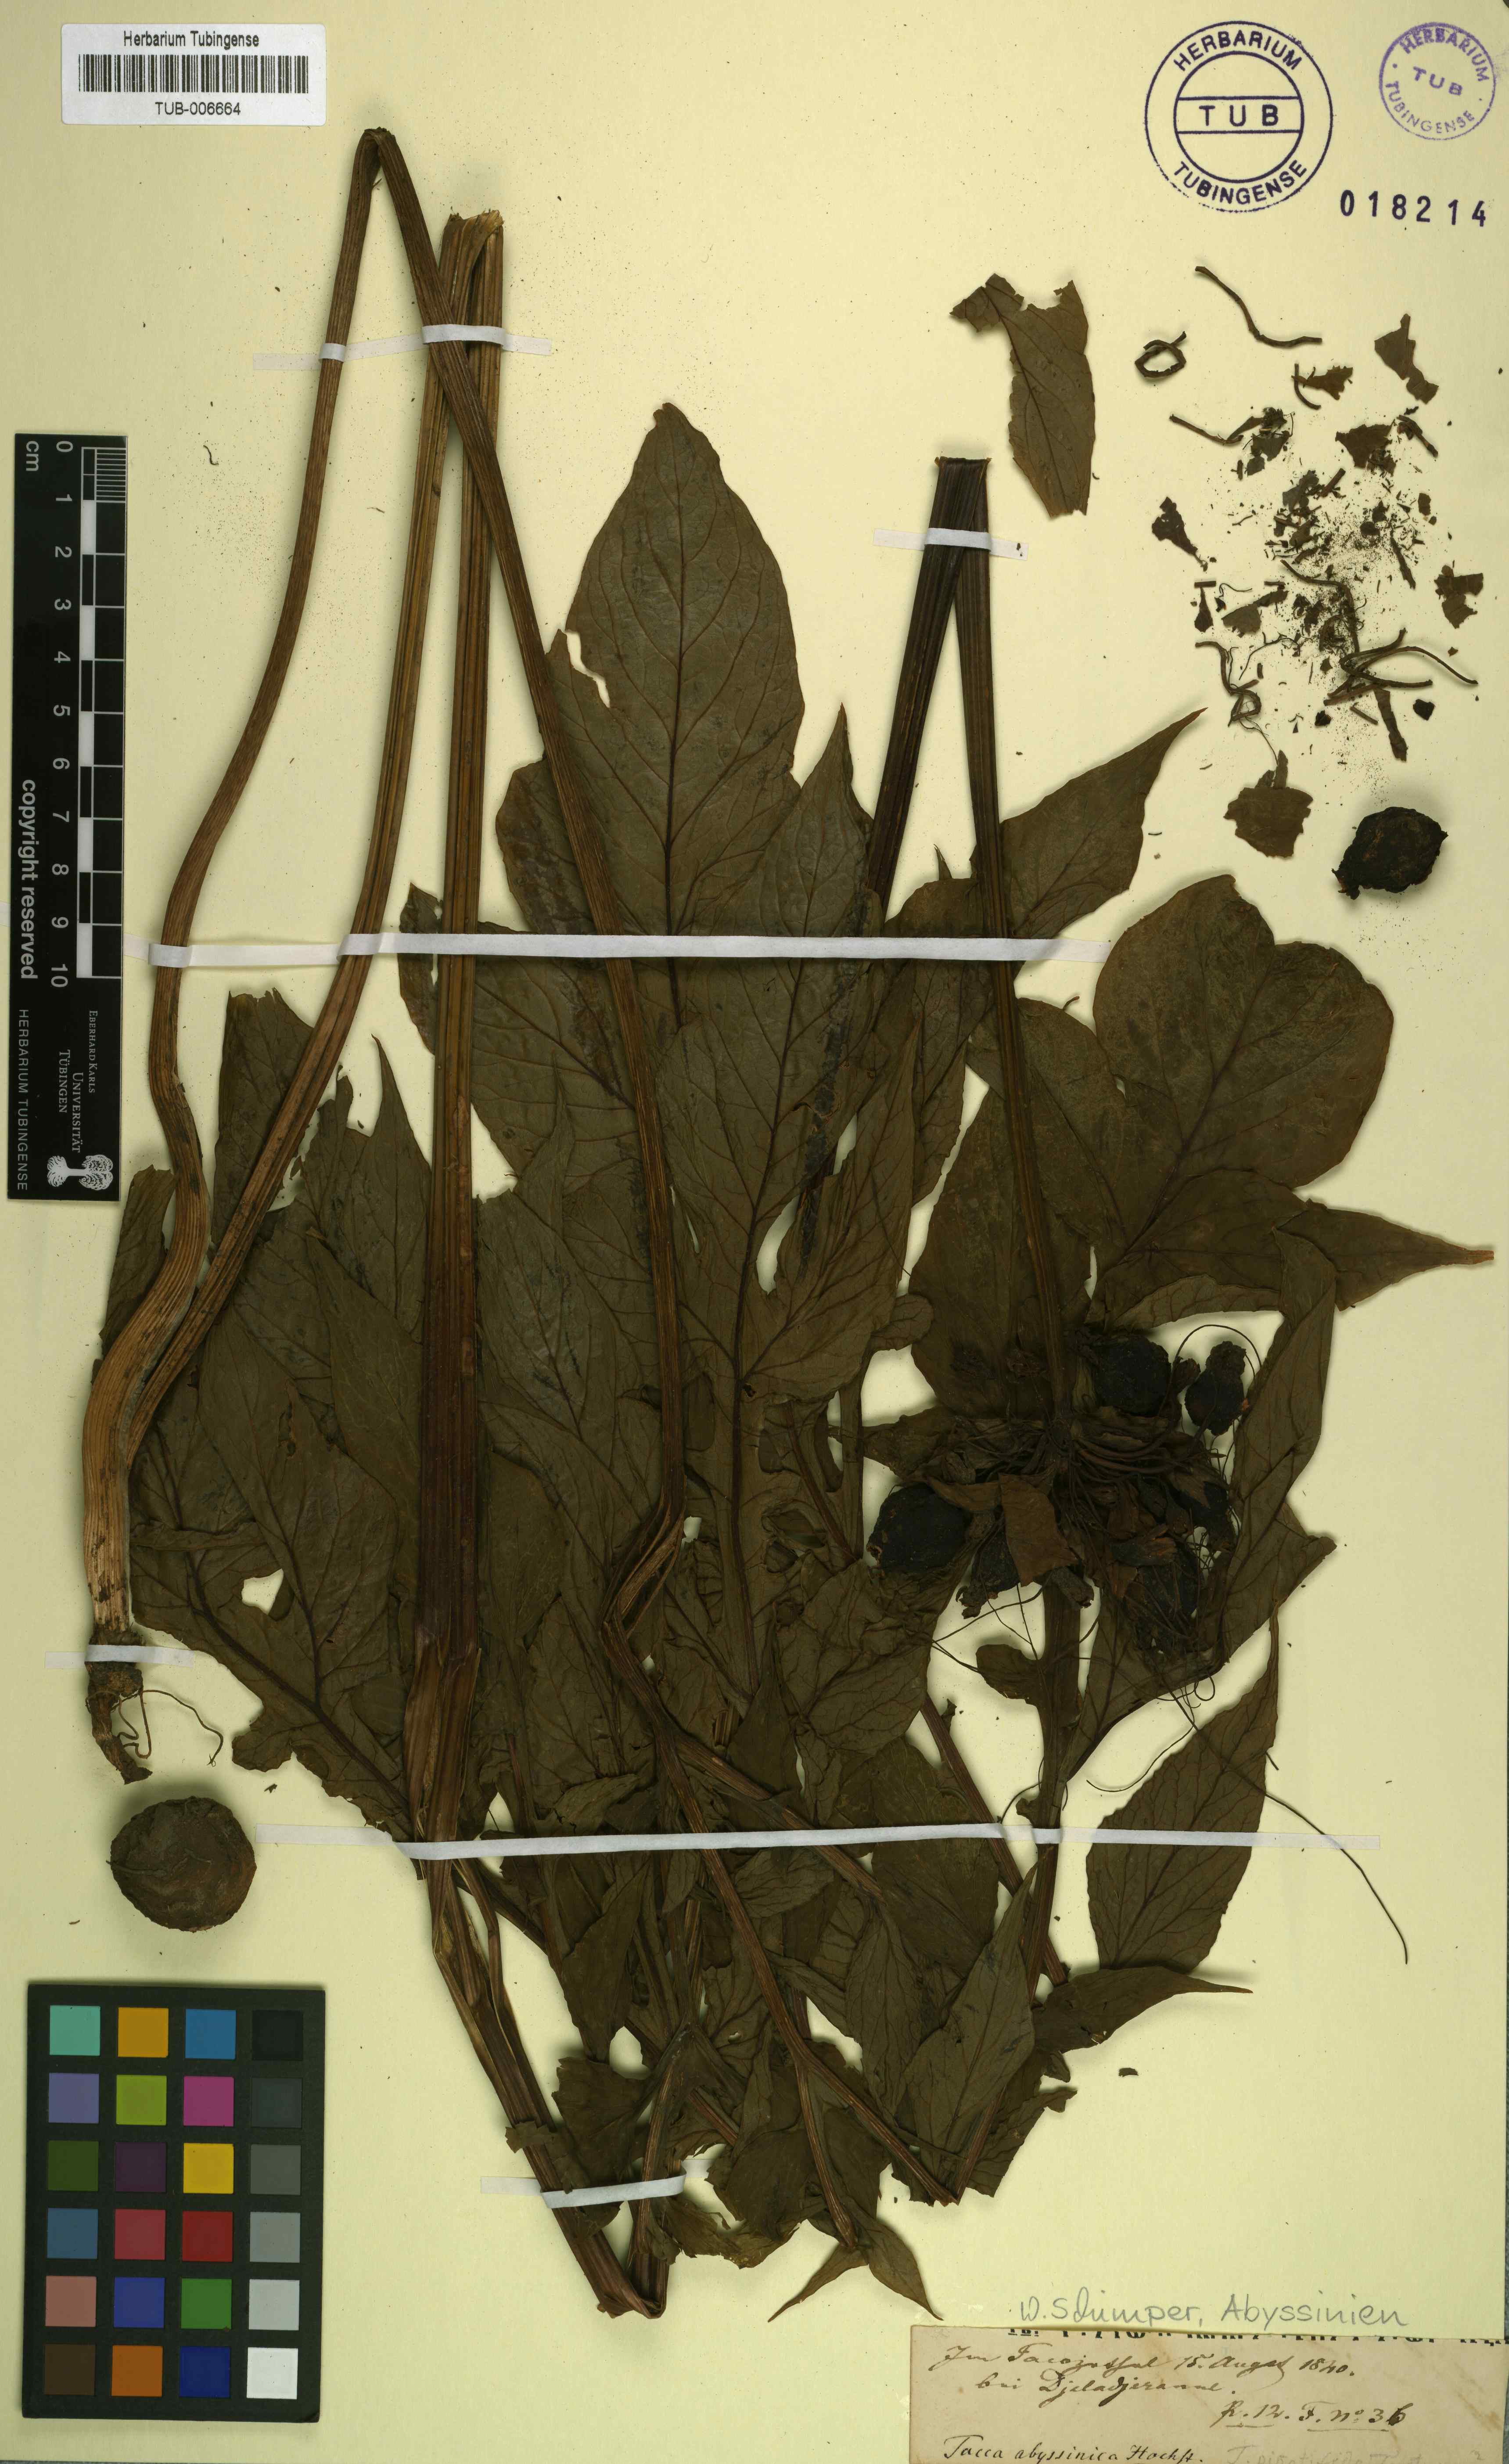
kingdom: Plantae
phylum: Tracheophyta
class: Liliopsida
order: Dioscoreales
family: Dioscoreaceae
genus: Tacca
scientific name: Tacca leontopetaloides
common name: Arrowroot
